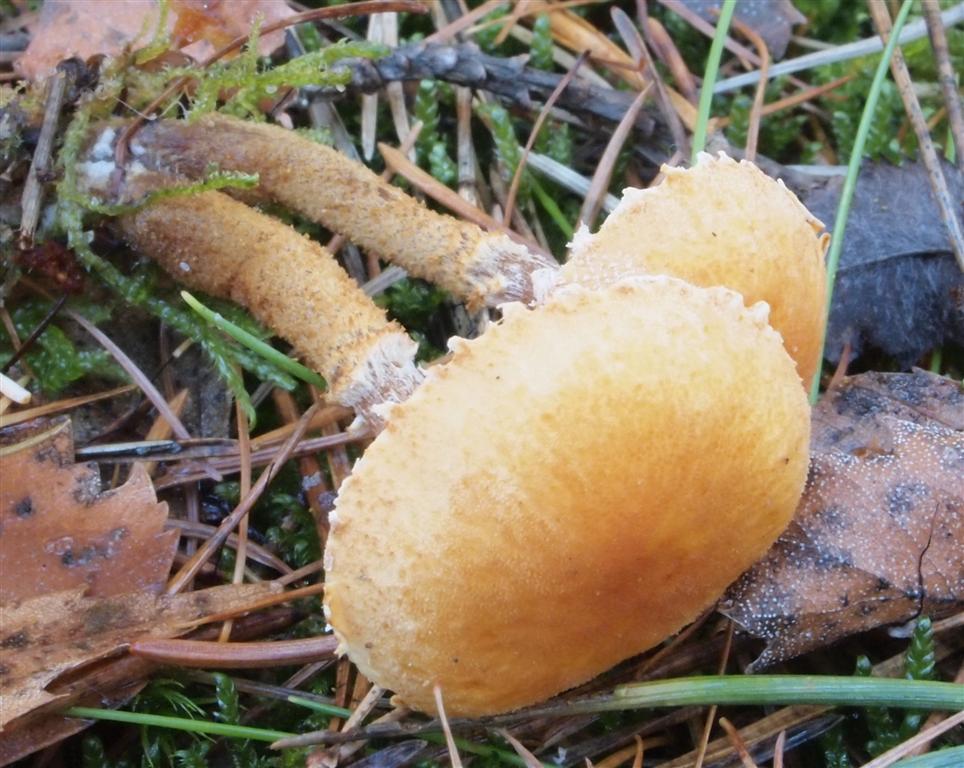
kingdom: Fungi
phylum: Basidiomycota
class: Agaricomycetes
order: Agaricales
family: Tricholomataceae
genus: Cystoderma
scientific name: Cystoderma amianthinum
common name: okkergul grynhat
